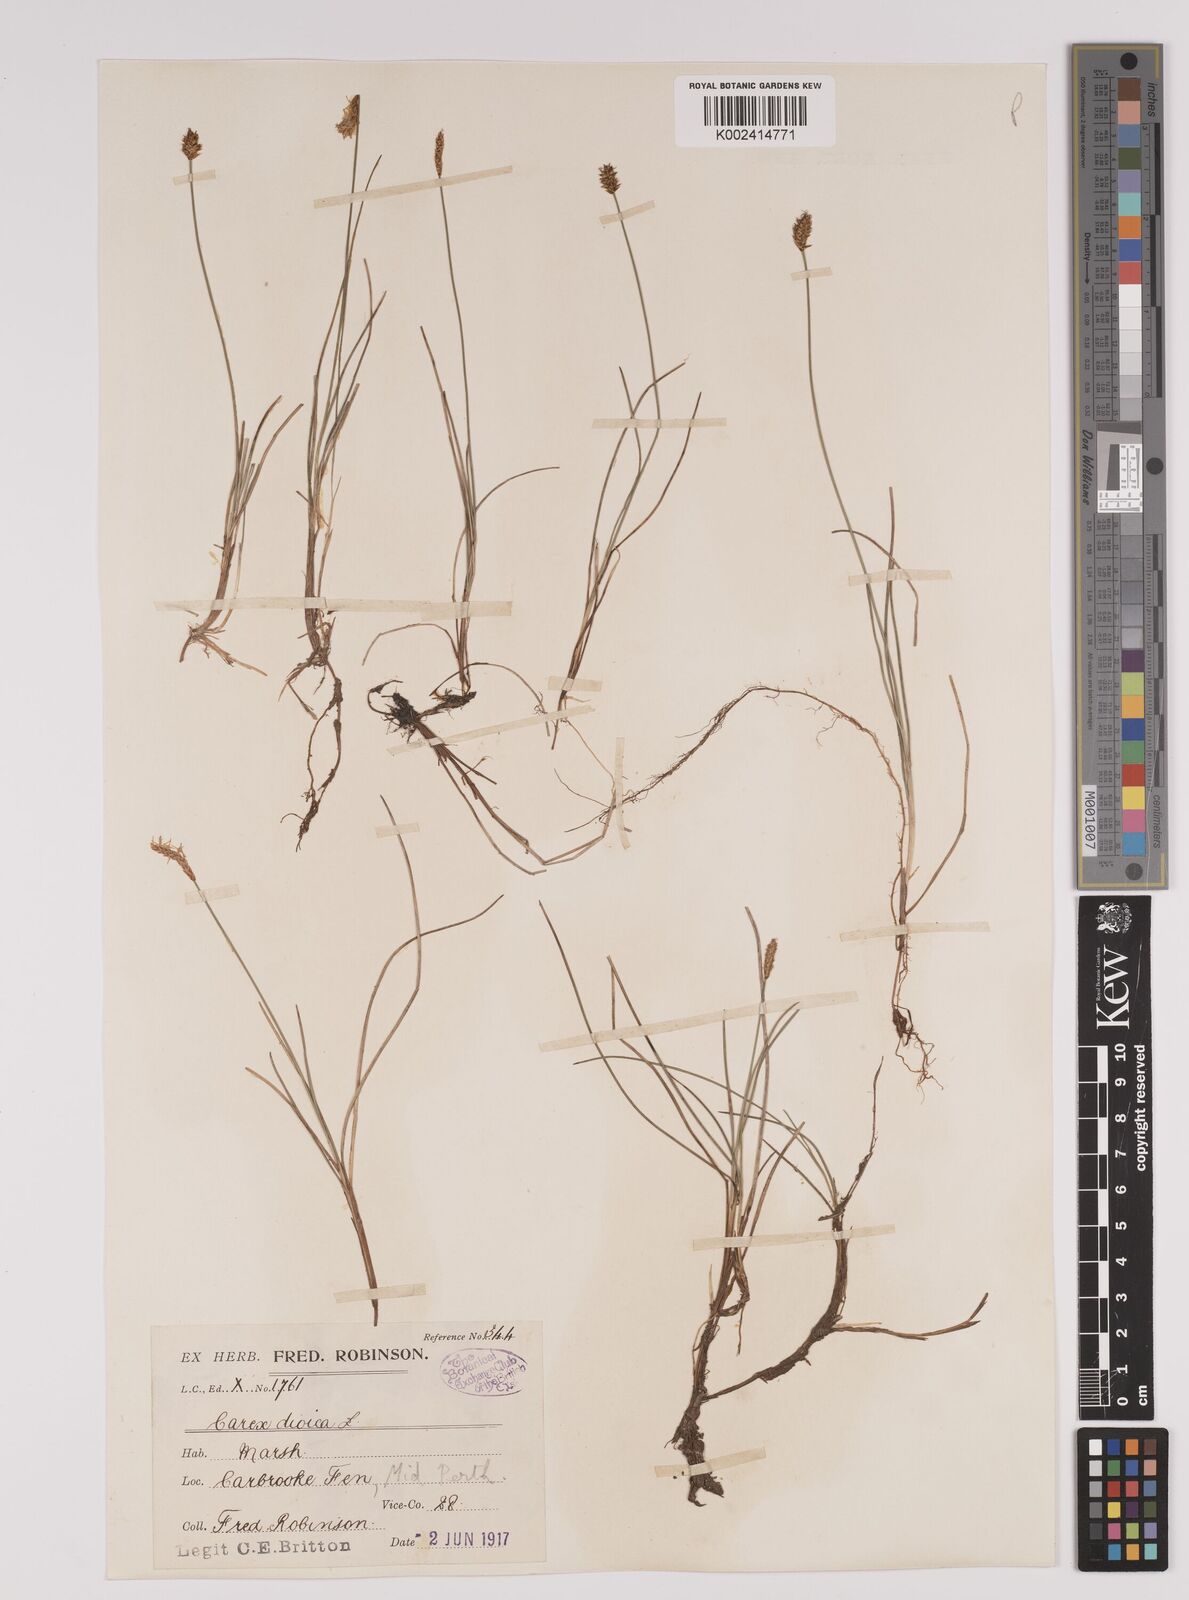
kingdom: Plantae
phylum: Tracheophyta
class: Liliopsida
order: Poales
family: Cyperaceae
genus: Carex
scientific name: Carex dioica
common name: Dioecious sedge
